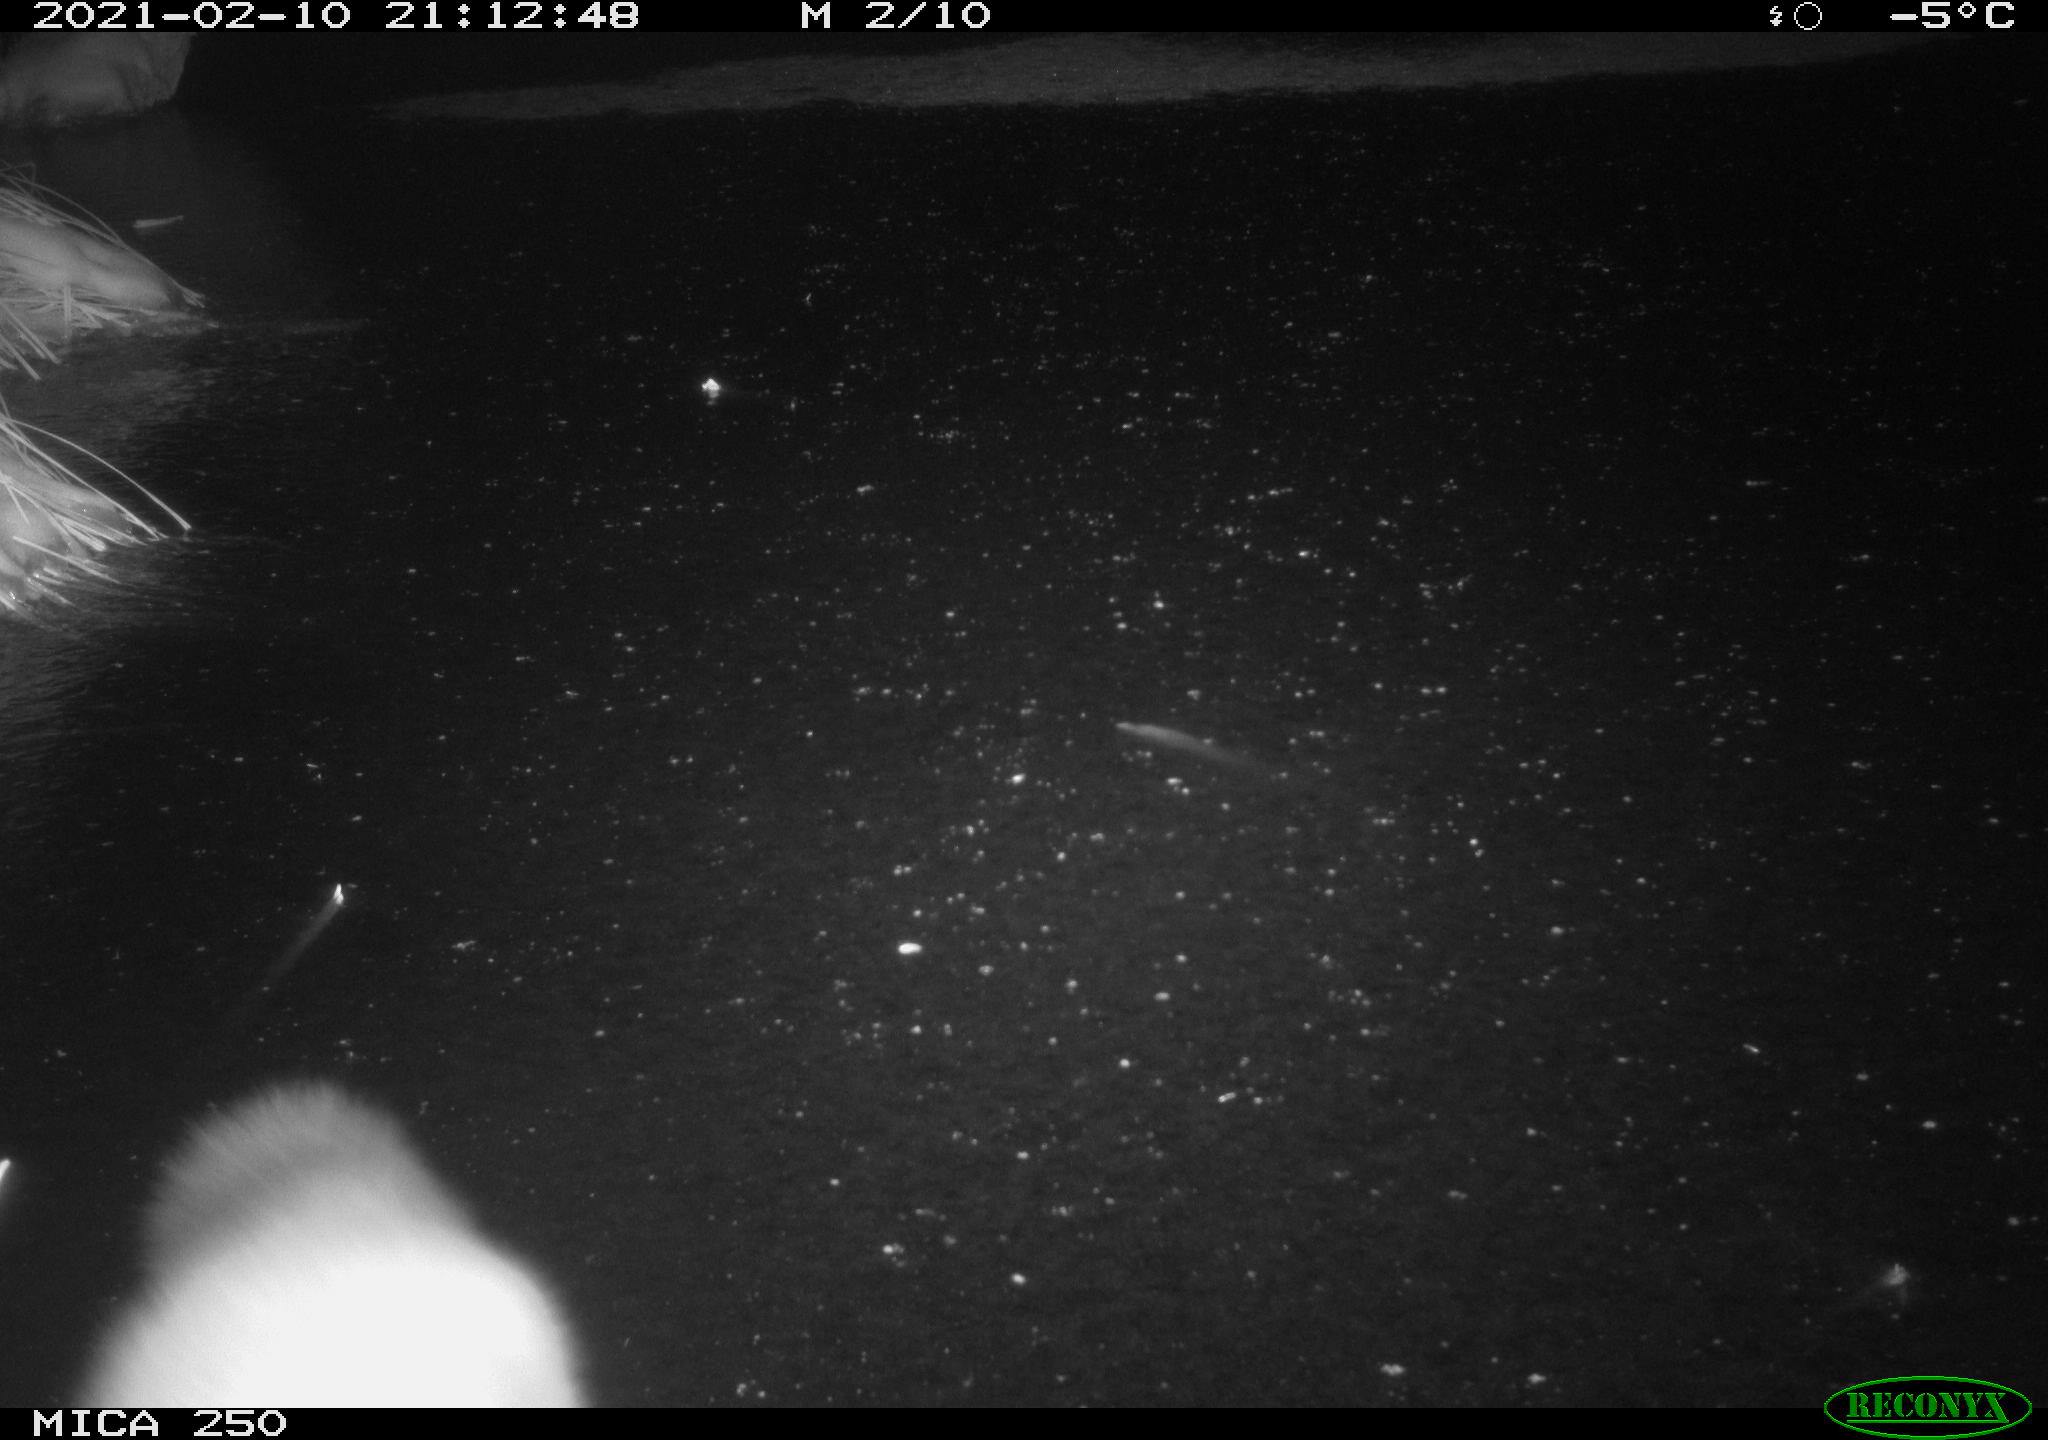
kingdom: Animalia
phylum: Chordata
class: Mammalia
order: Carnivora
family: Mustelidae
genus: Martes
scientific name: Martes foina
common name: Beech marten
